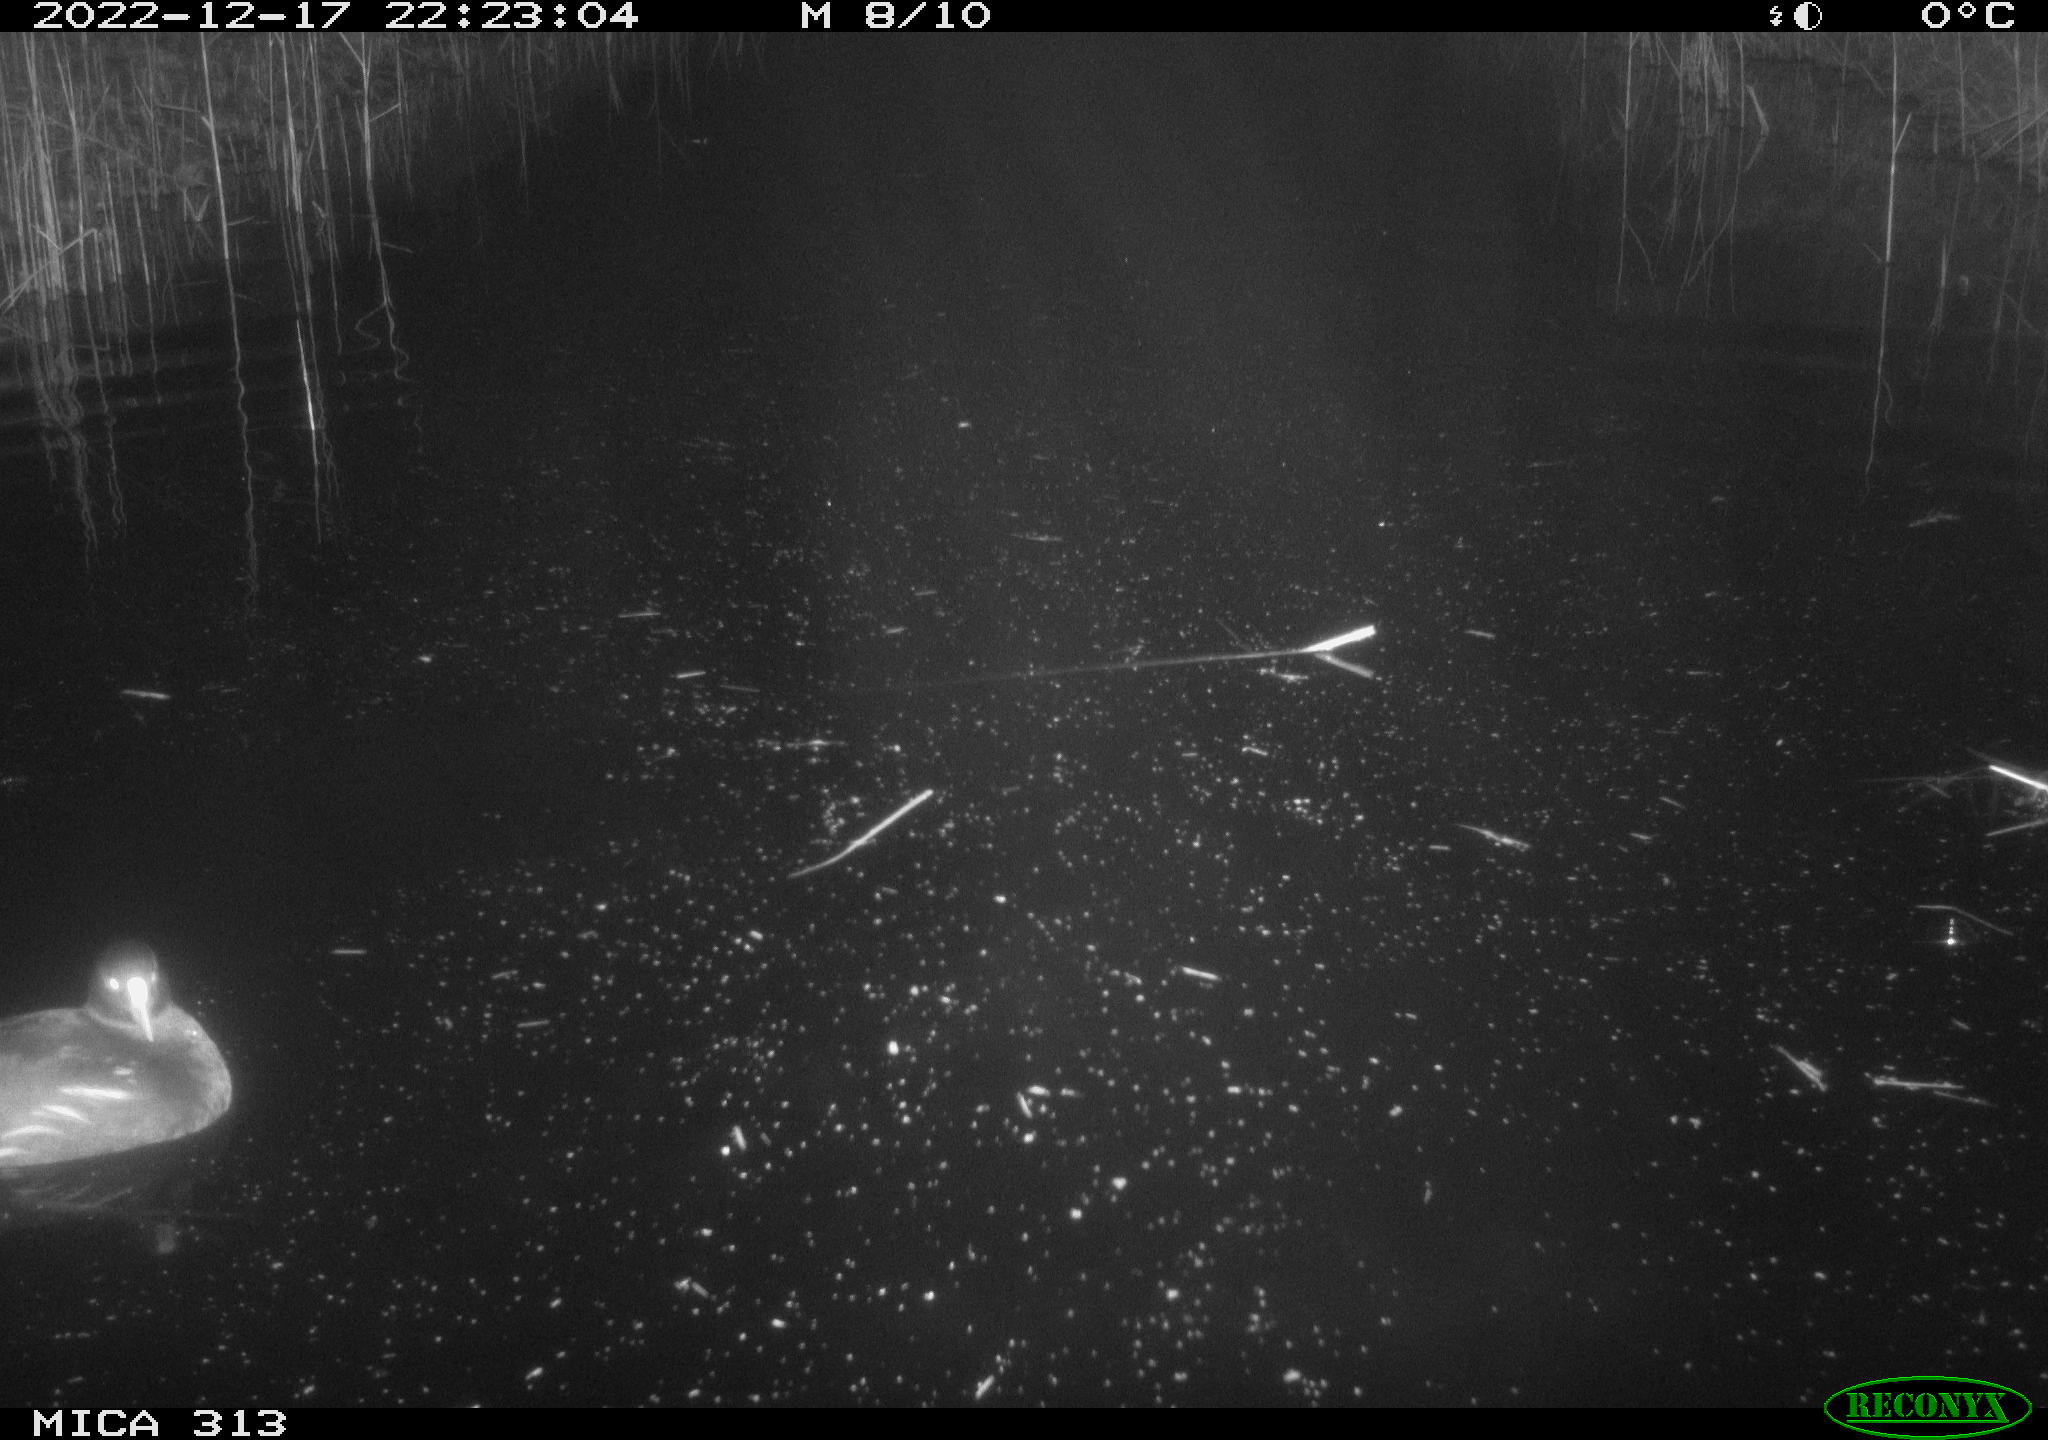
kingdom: Animalia
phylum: Chordata
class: Aves
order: Gruiformes
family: Rallidae
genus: Gallinula
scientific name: Gallinula chloropus
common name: Common moorhen
